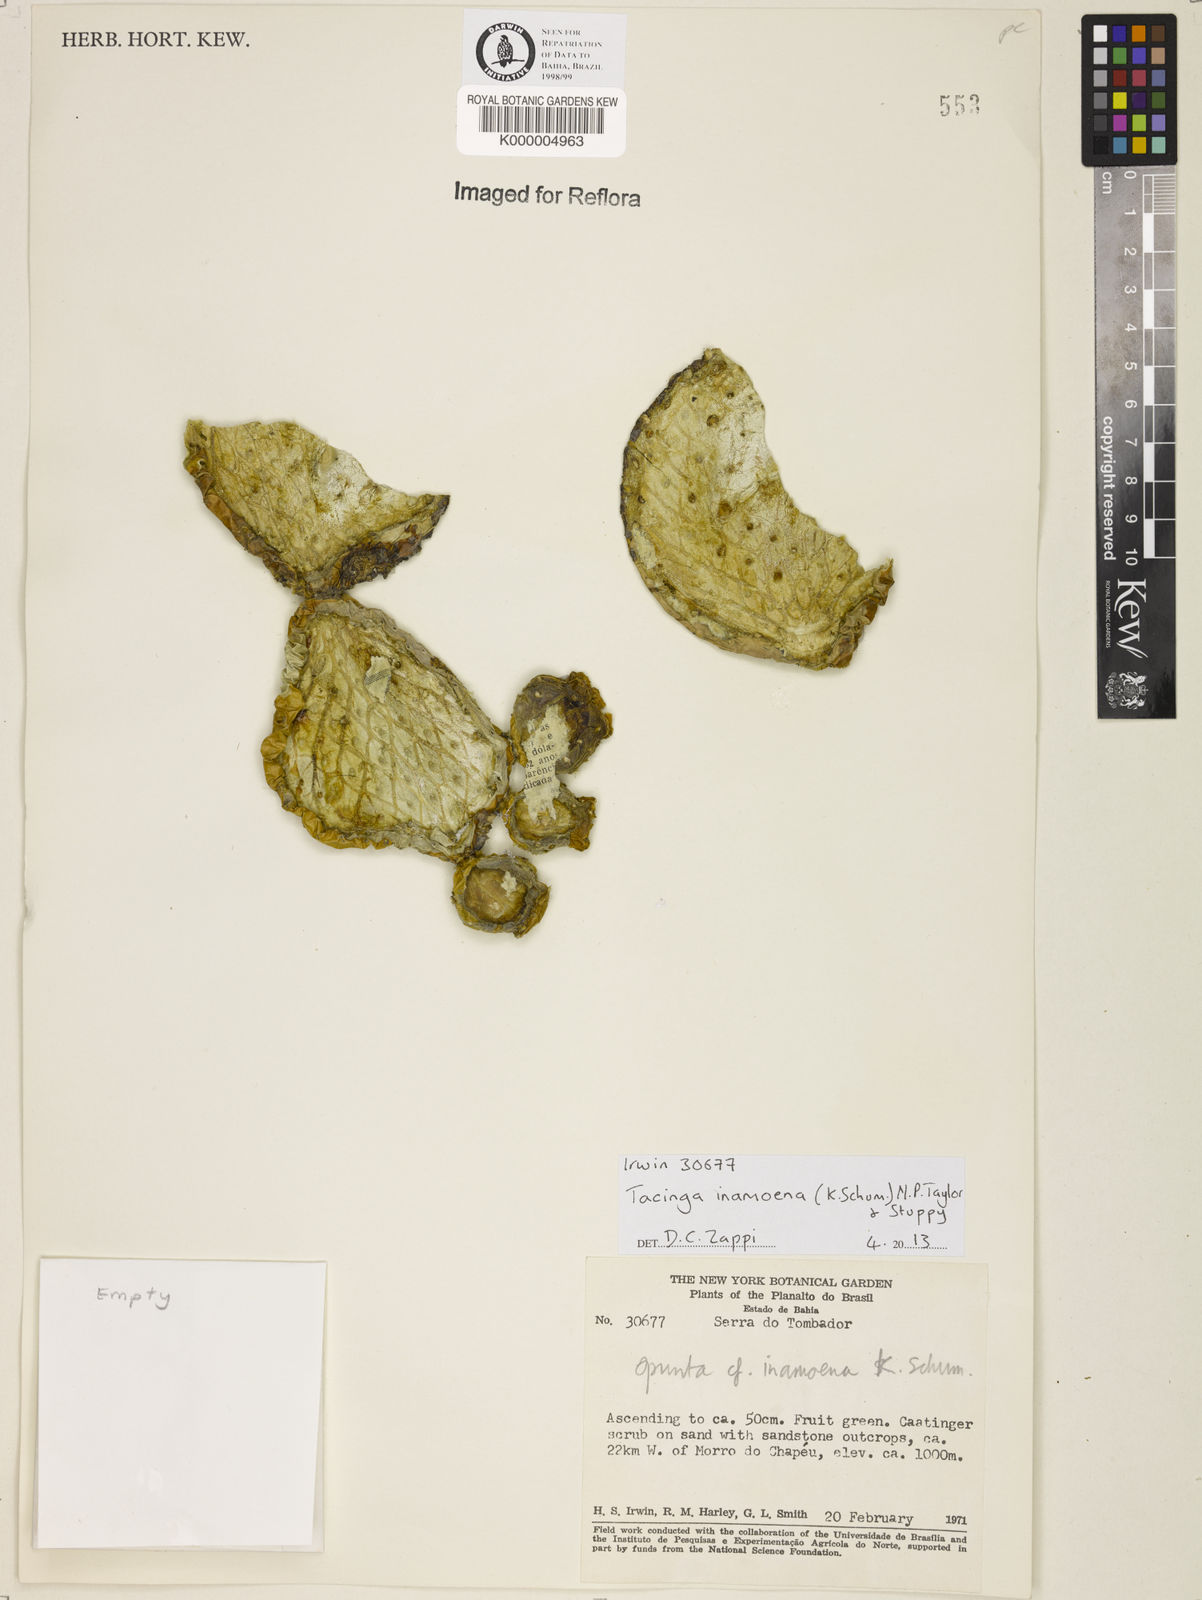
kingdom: Plantae
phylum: Tracheophyta
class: Magnoliopsida
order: Caryophyllales
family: Cactaceae
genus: Tacinga
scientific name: Tacinga inamoena
